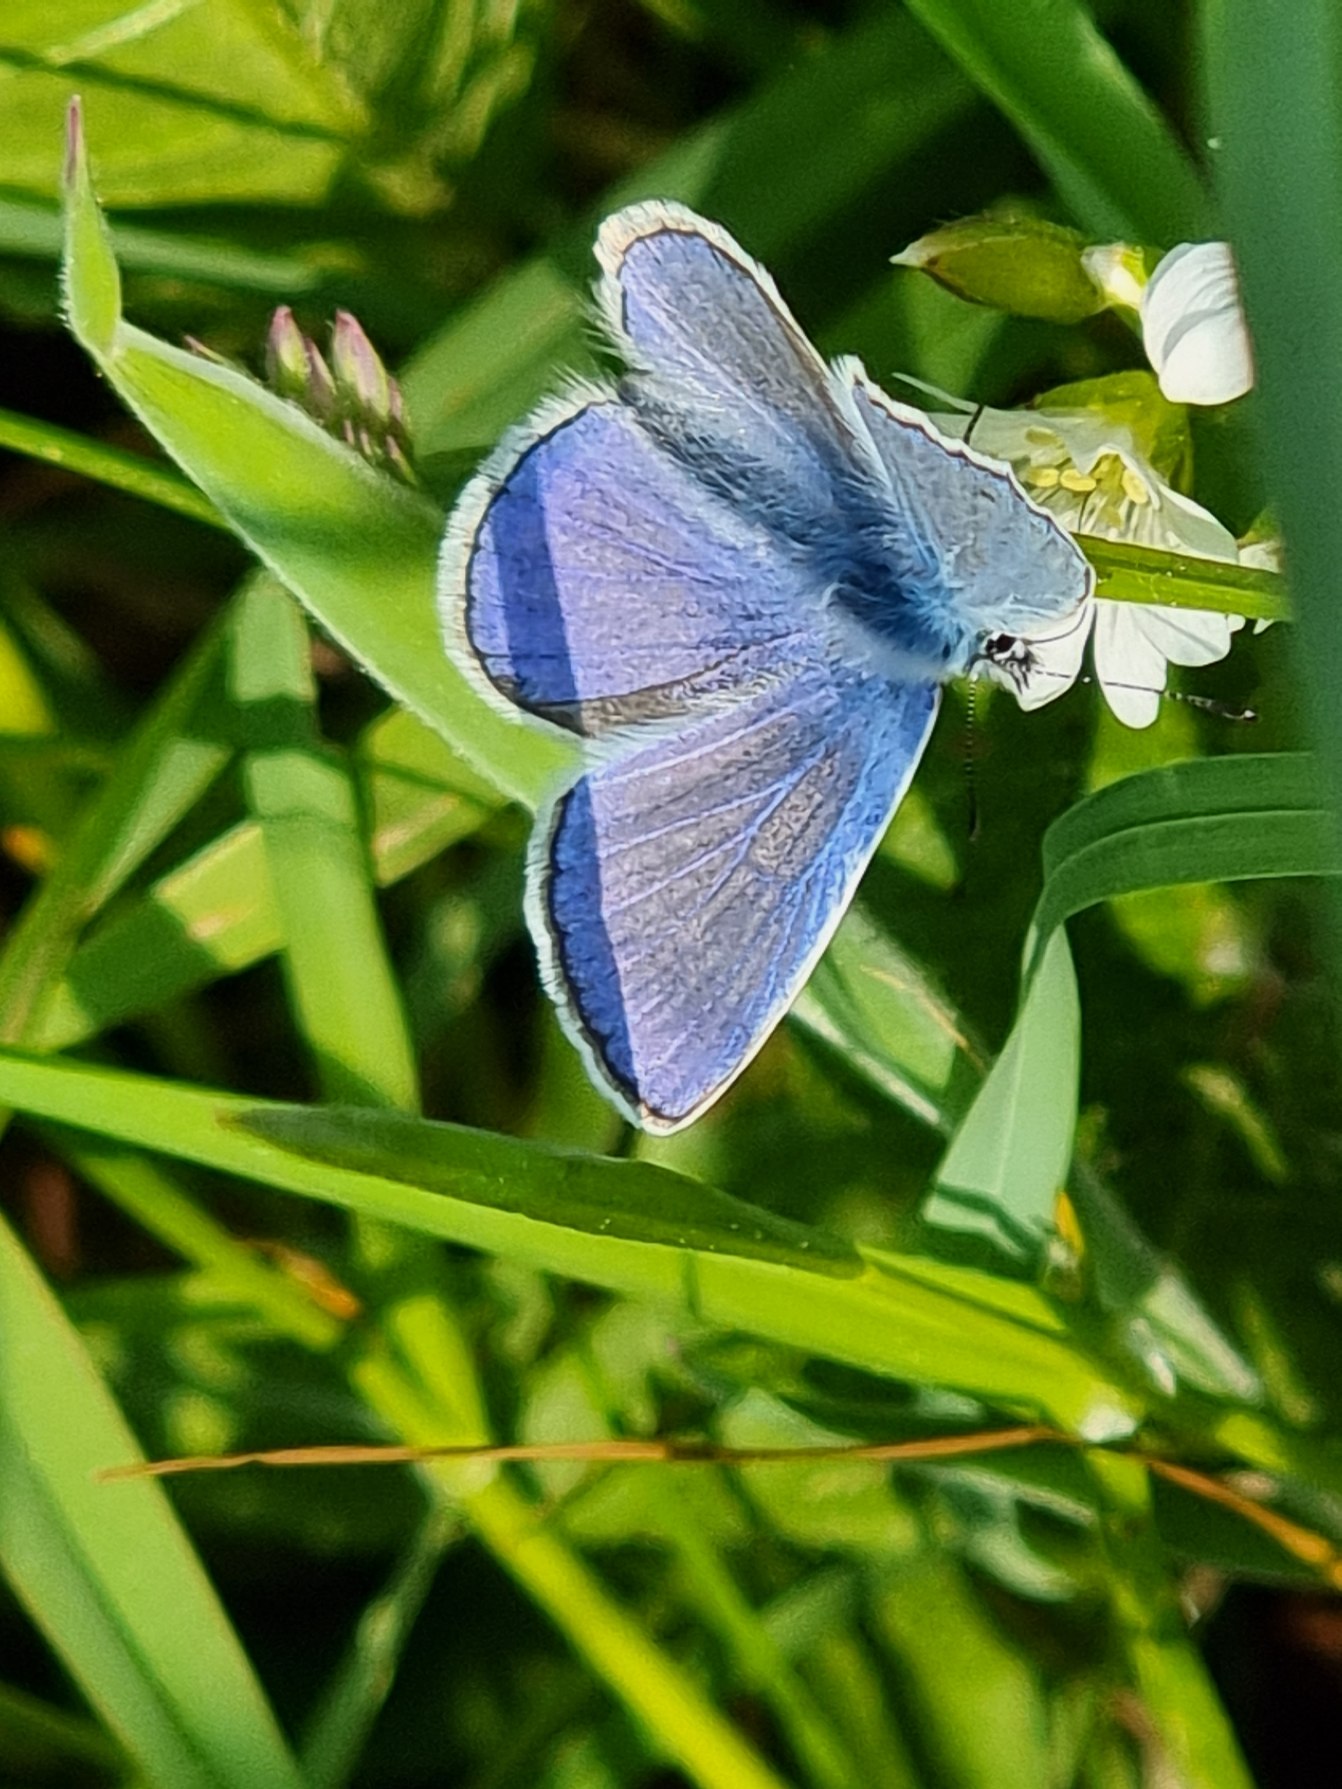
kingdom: Animalia
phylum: Arthropoda
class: Insecta
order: Lepidoptera
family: Lycaenidae
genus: Polyommatus
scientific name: Polyommatus icarus
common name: Almindelig blåfugl
